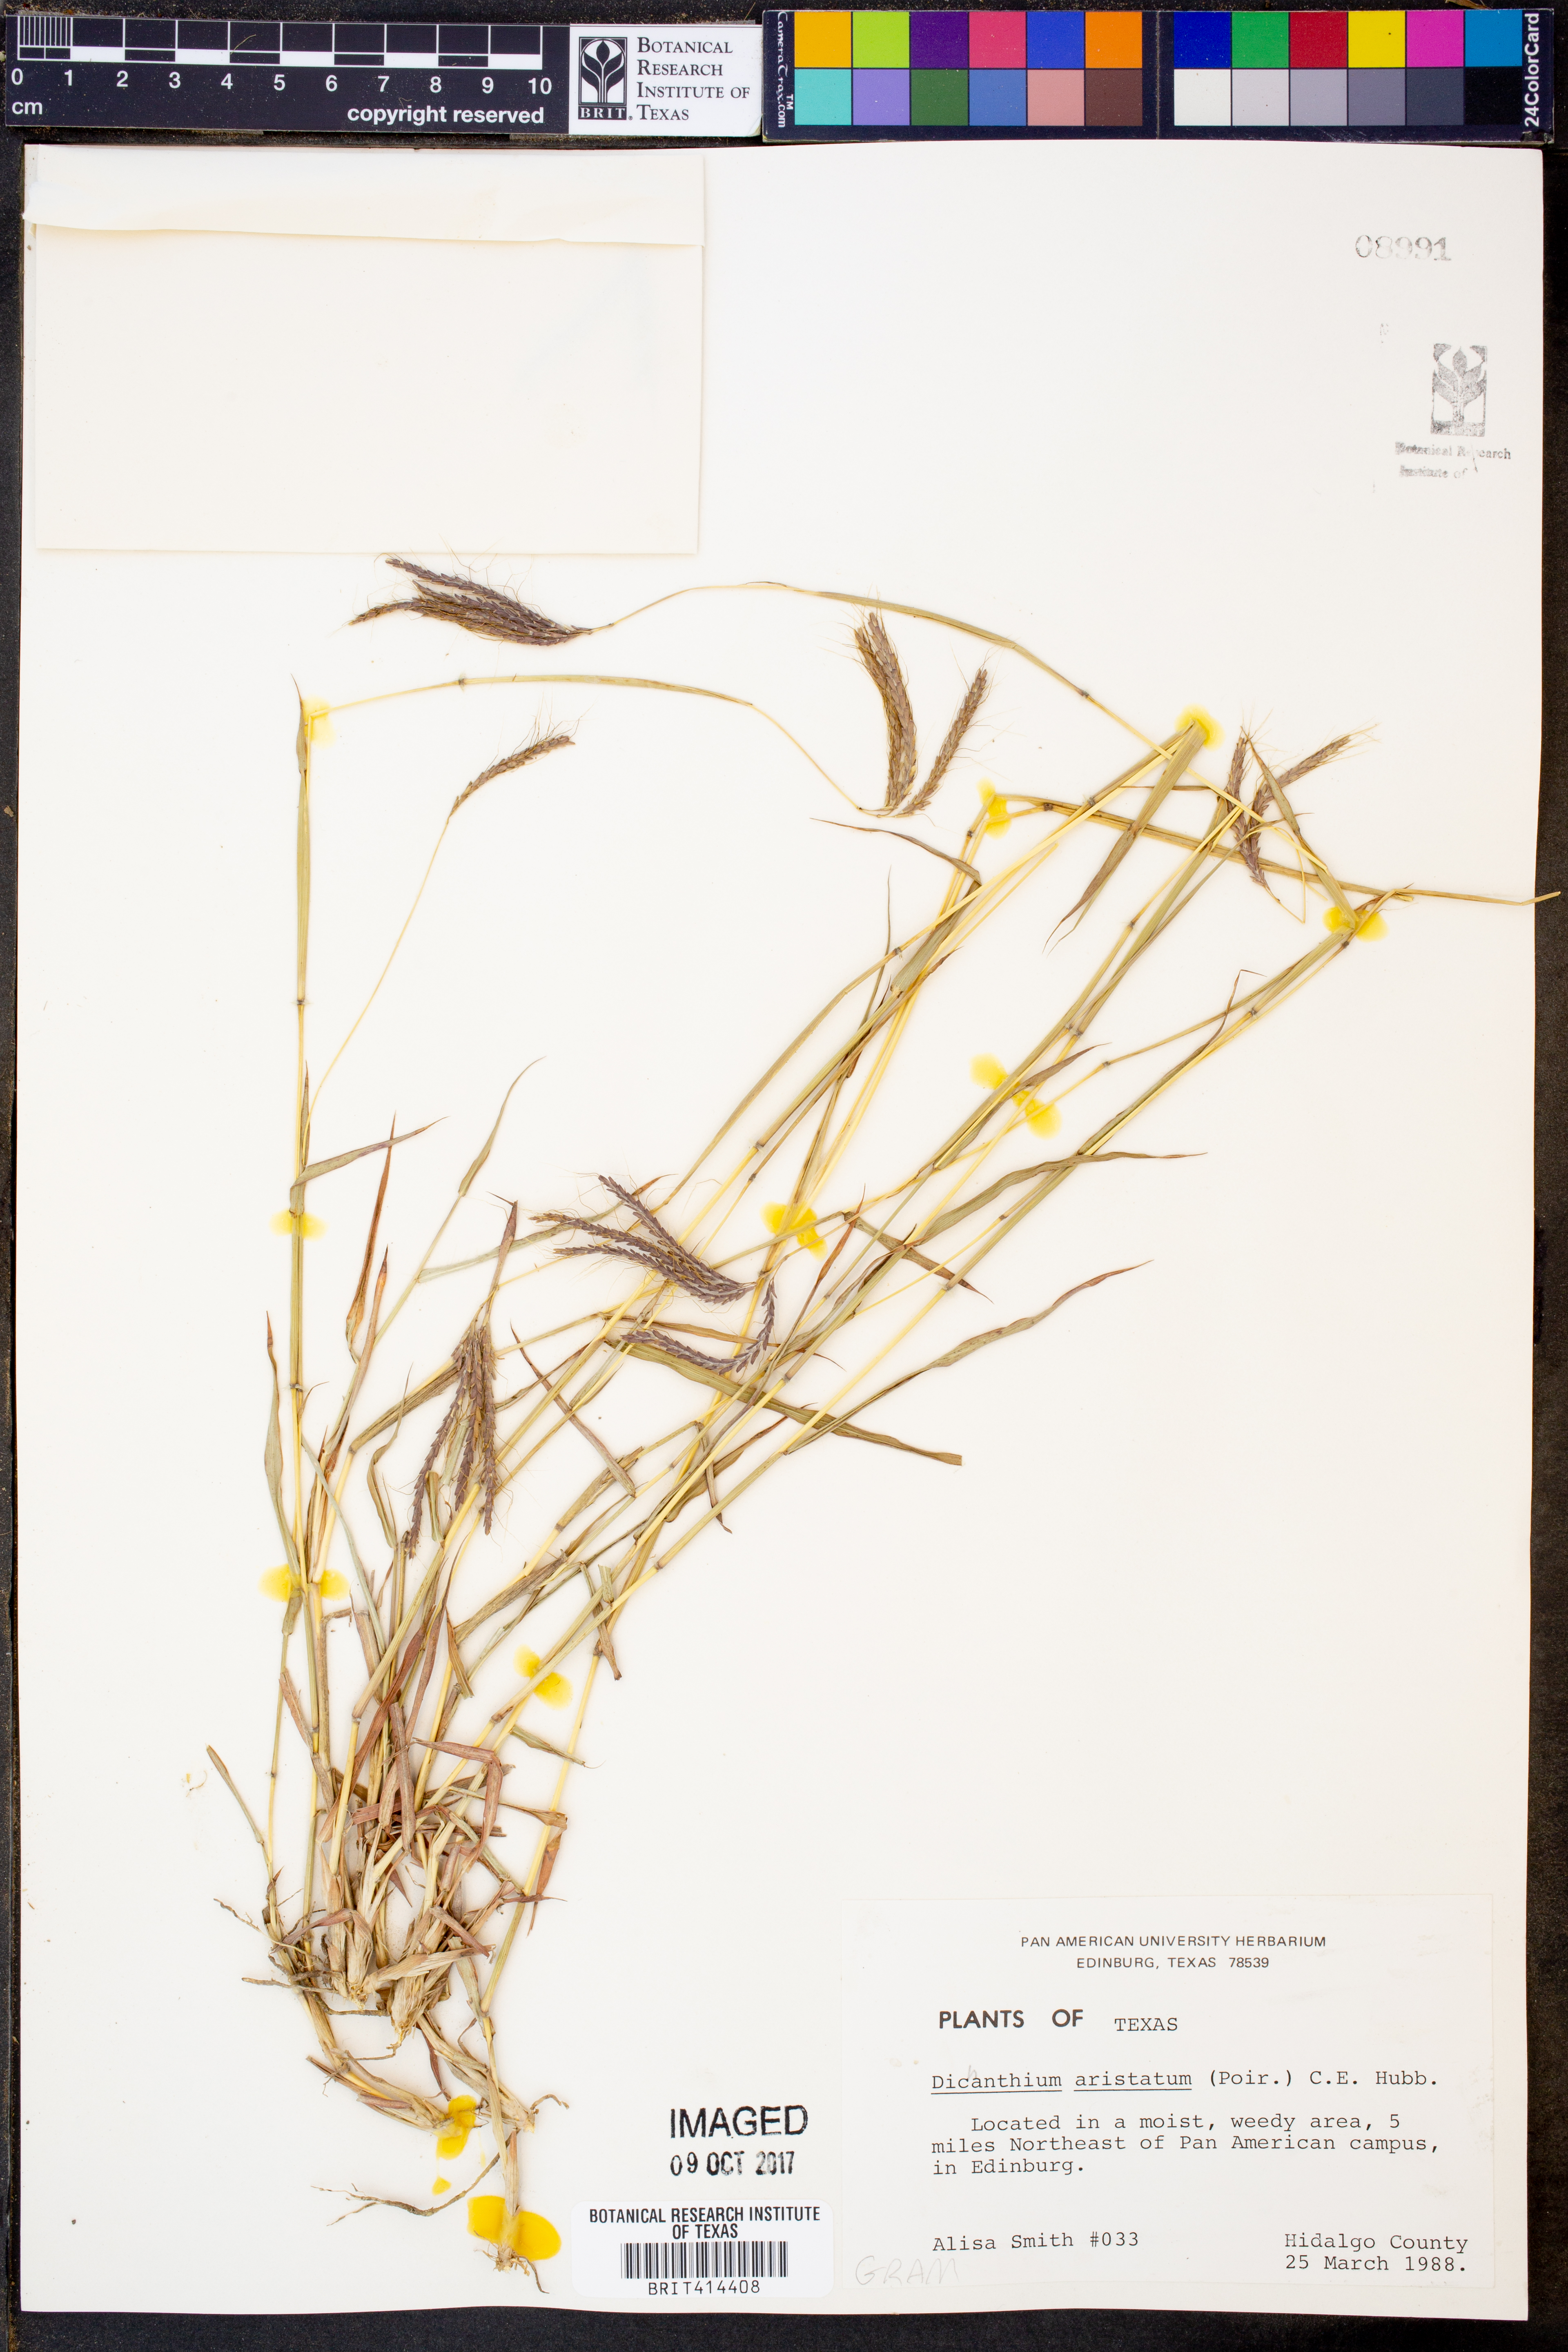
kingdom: Plantae
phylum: Tracheophyta
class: Liliopsida
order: Poales
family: Poaceae
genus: Dichanthium
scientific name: Dichanthium aristatum
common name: Angleton bluestem
